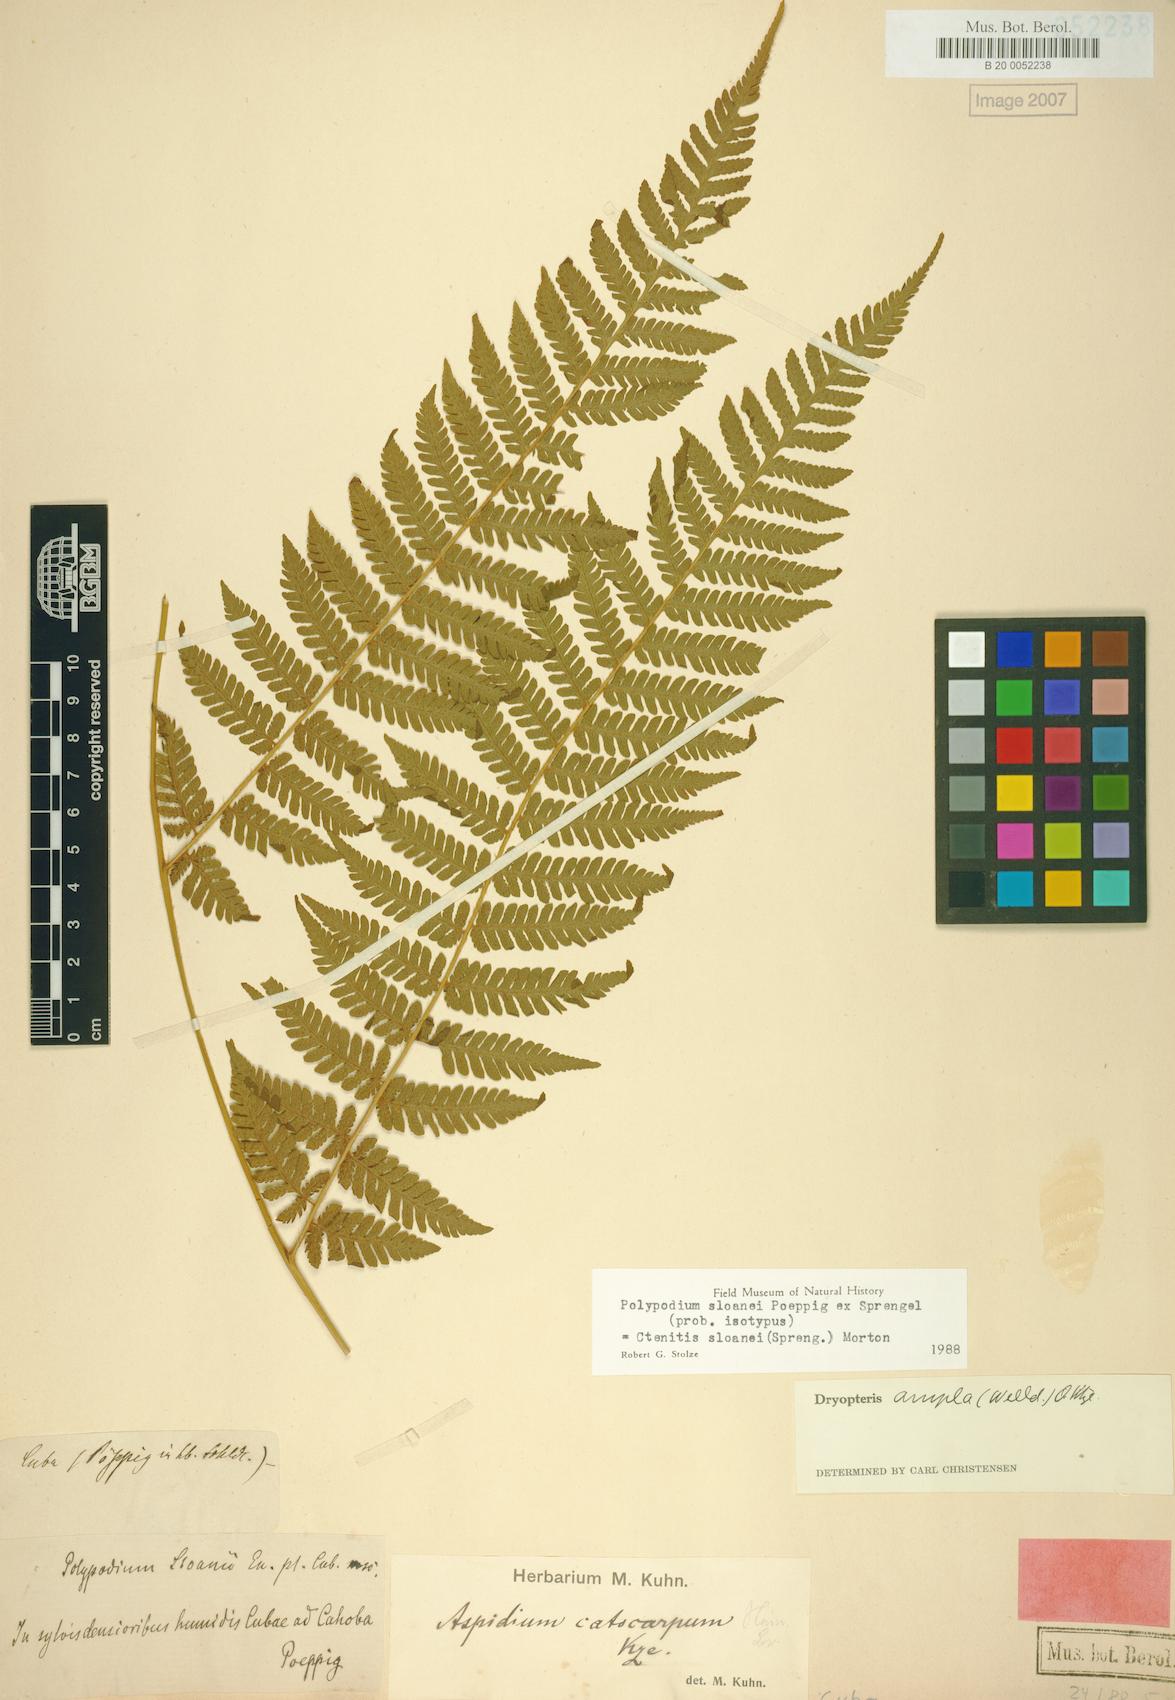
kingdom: Plantae
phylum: Tracheophyta
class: Polypodiopsida
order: Polypodiales
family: Dryopteridaceae
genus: Ctenitis
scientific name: Ctenitis sloanei
